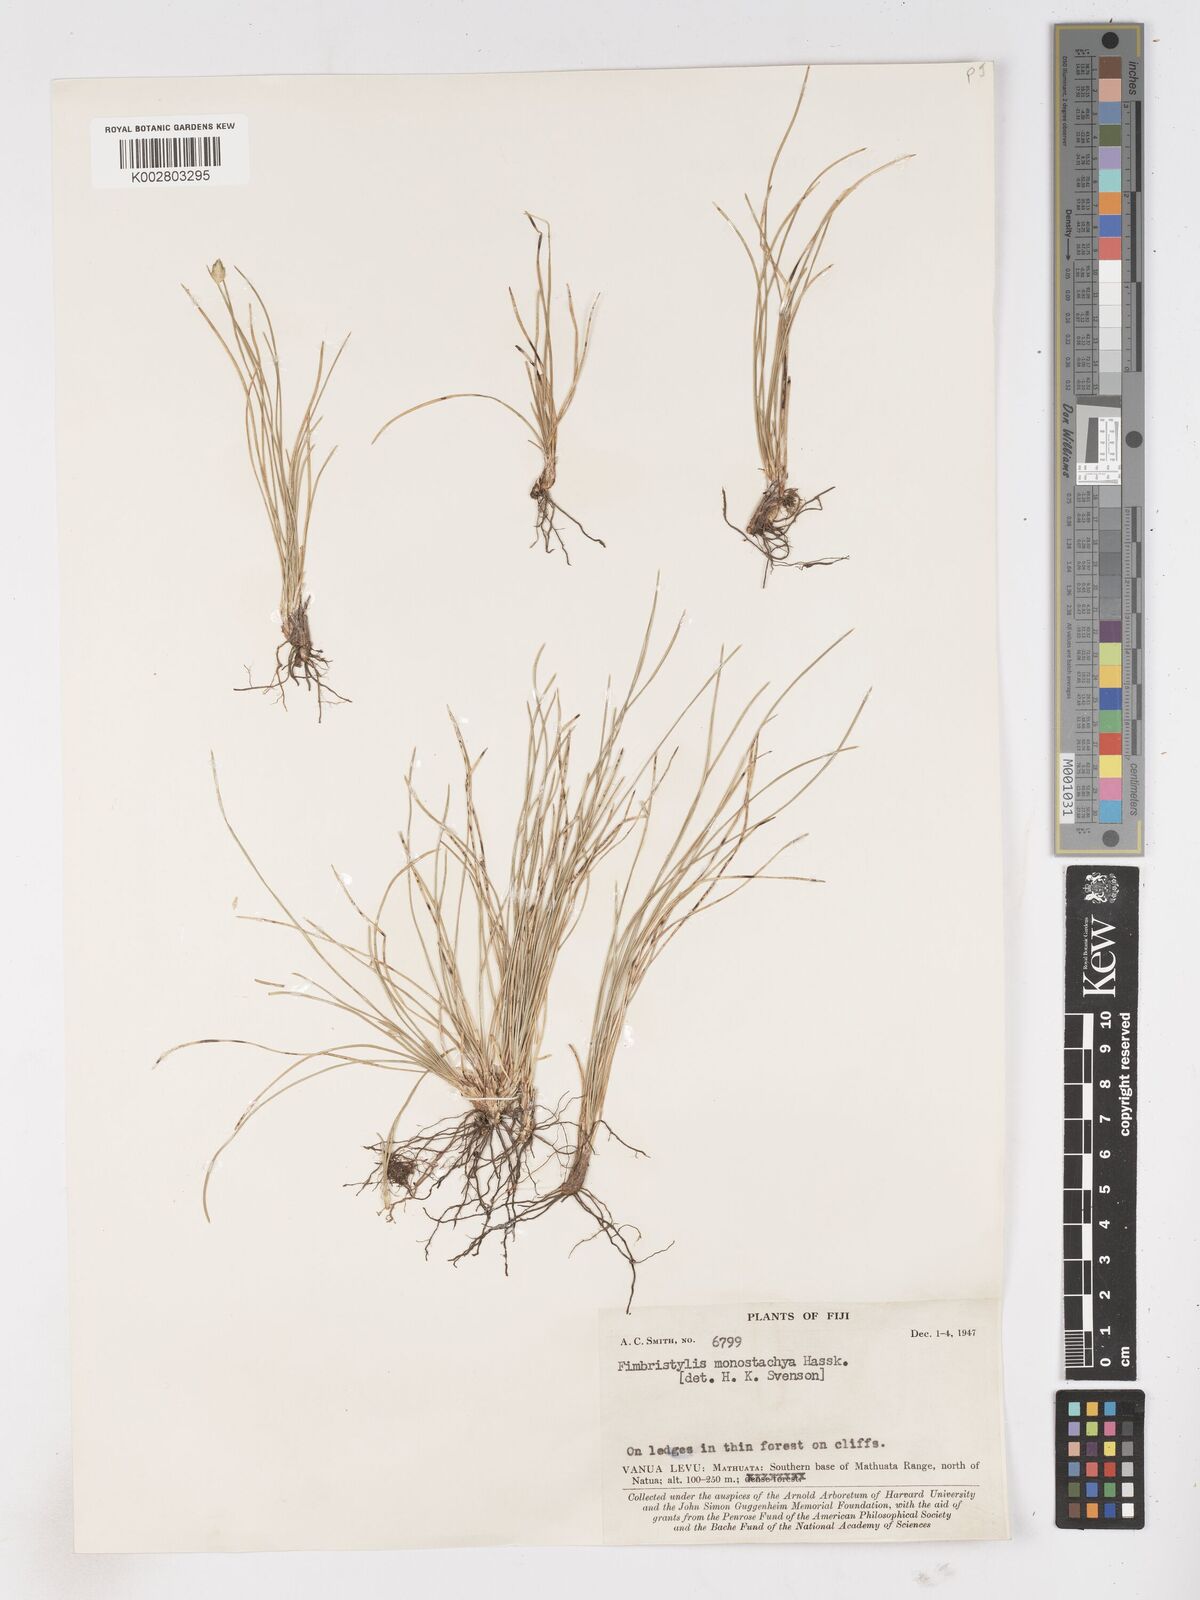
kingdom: Plantae
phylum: Tracheophyta
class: Liliopsida
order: Poales
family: Cyperaceae
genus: Abildgaardia
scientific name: Abildgaardia ovata
